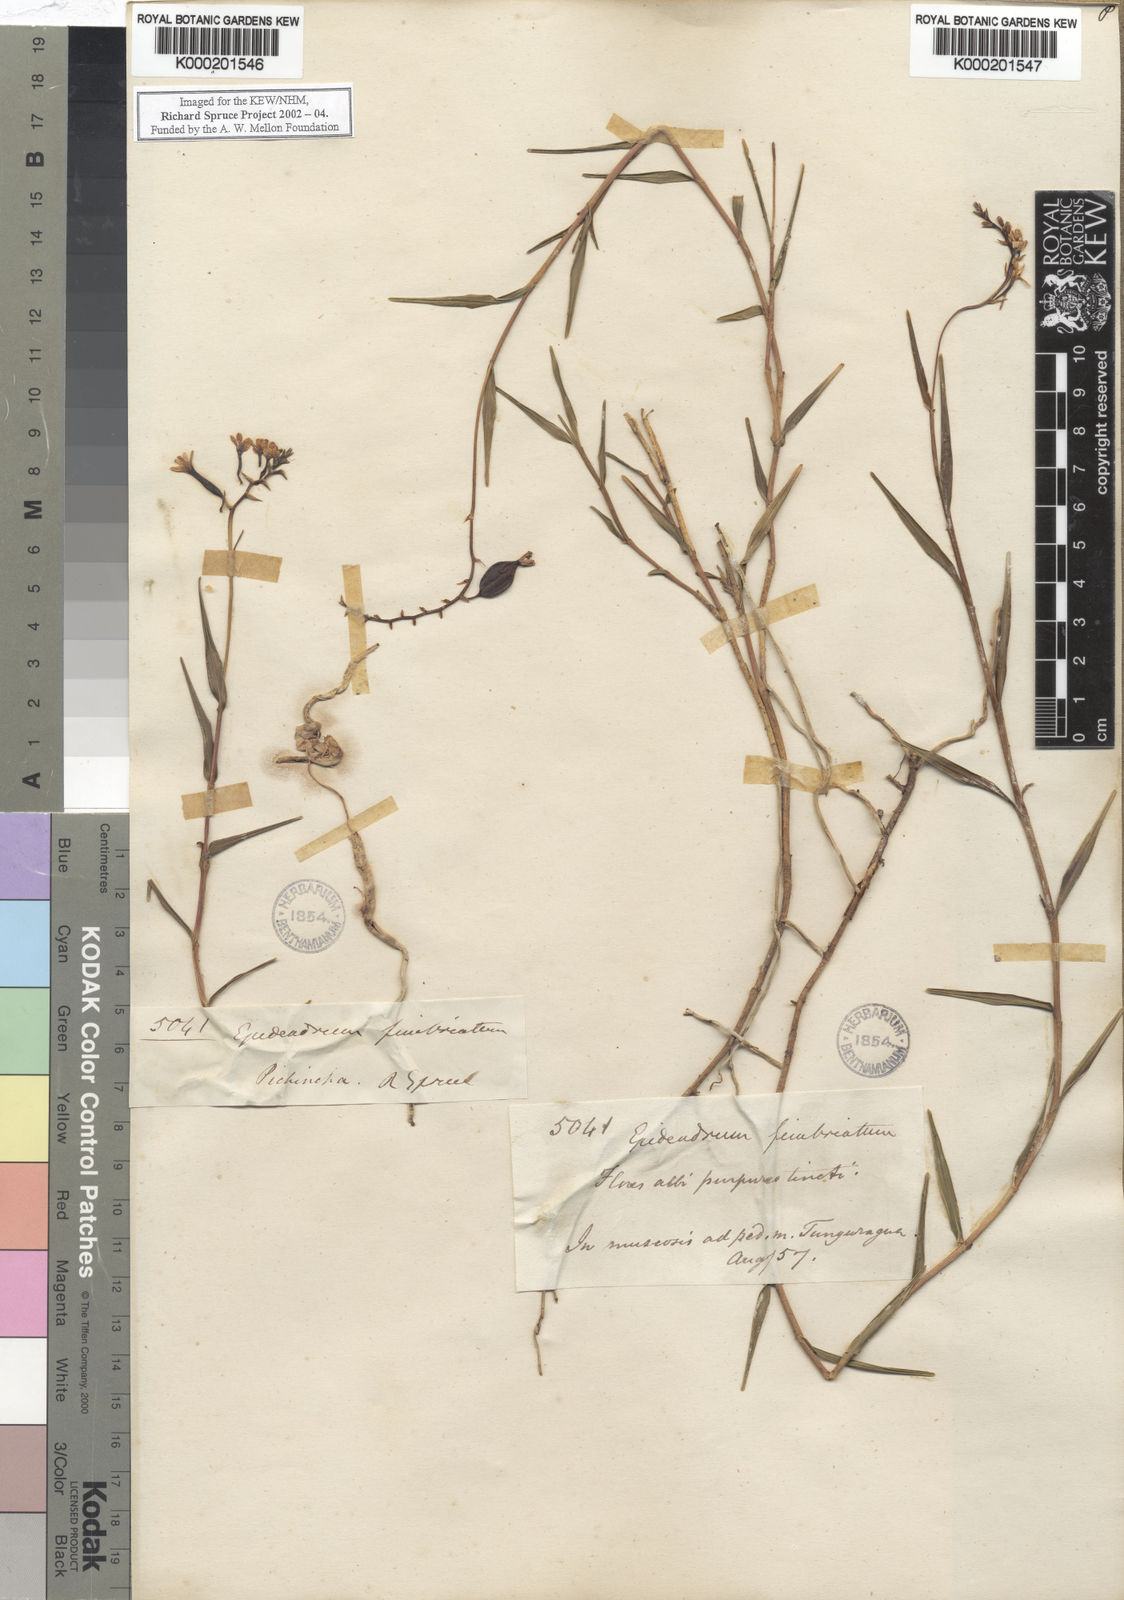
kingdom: Plantae
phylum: Tracheophyta
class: Liliopsida
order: Asparagales
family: Orchidaceae
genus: Epidendrum
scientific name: Epidendrum
